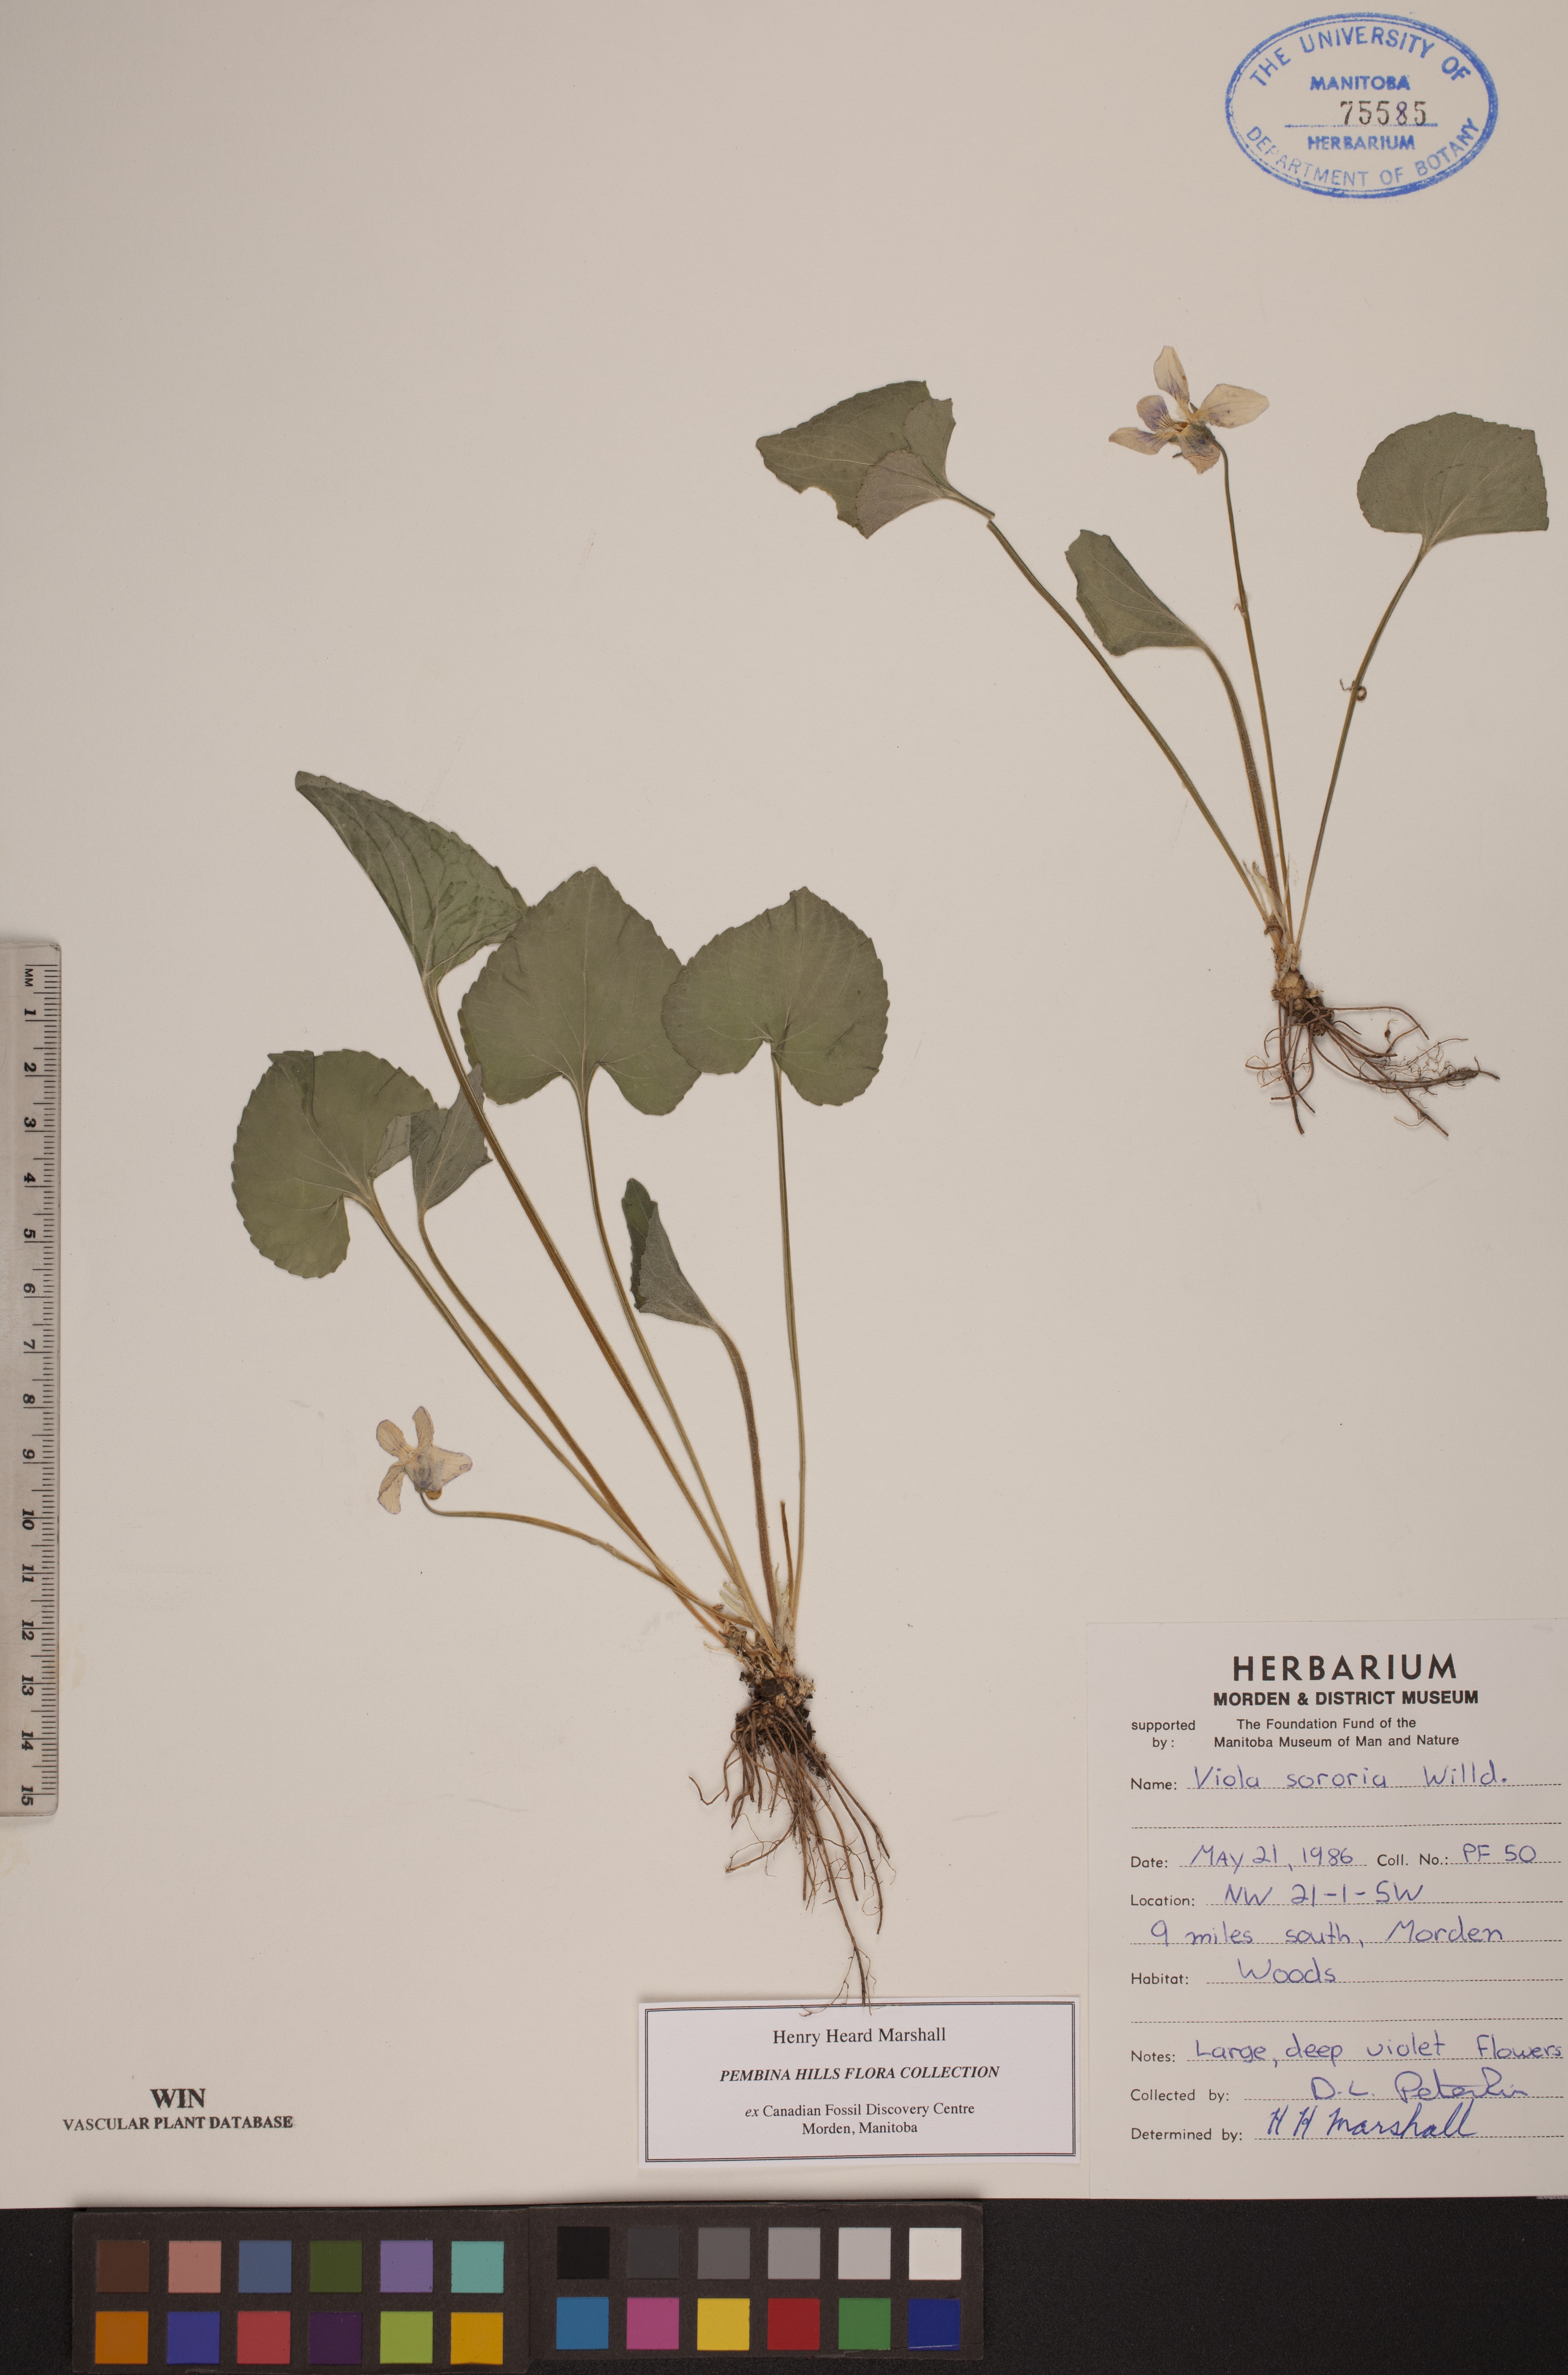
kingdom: Plantae
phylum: Tracheophyta
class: Magnoliopsida
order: Malpighiales
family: Violaceae
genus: Viola
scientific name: Viola sororia
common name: Dooryard violet
